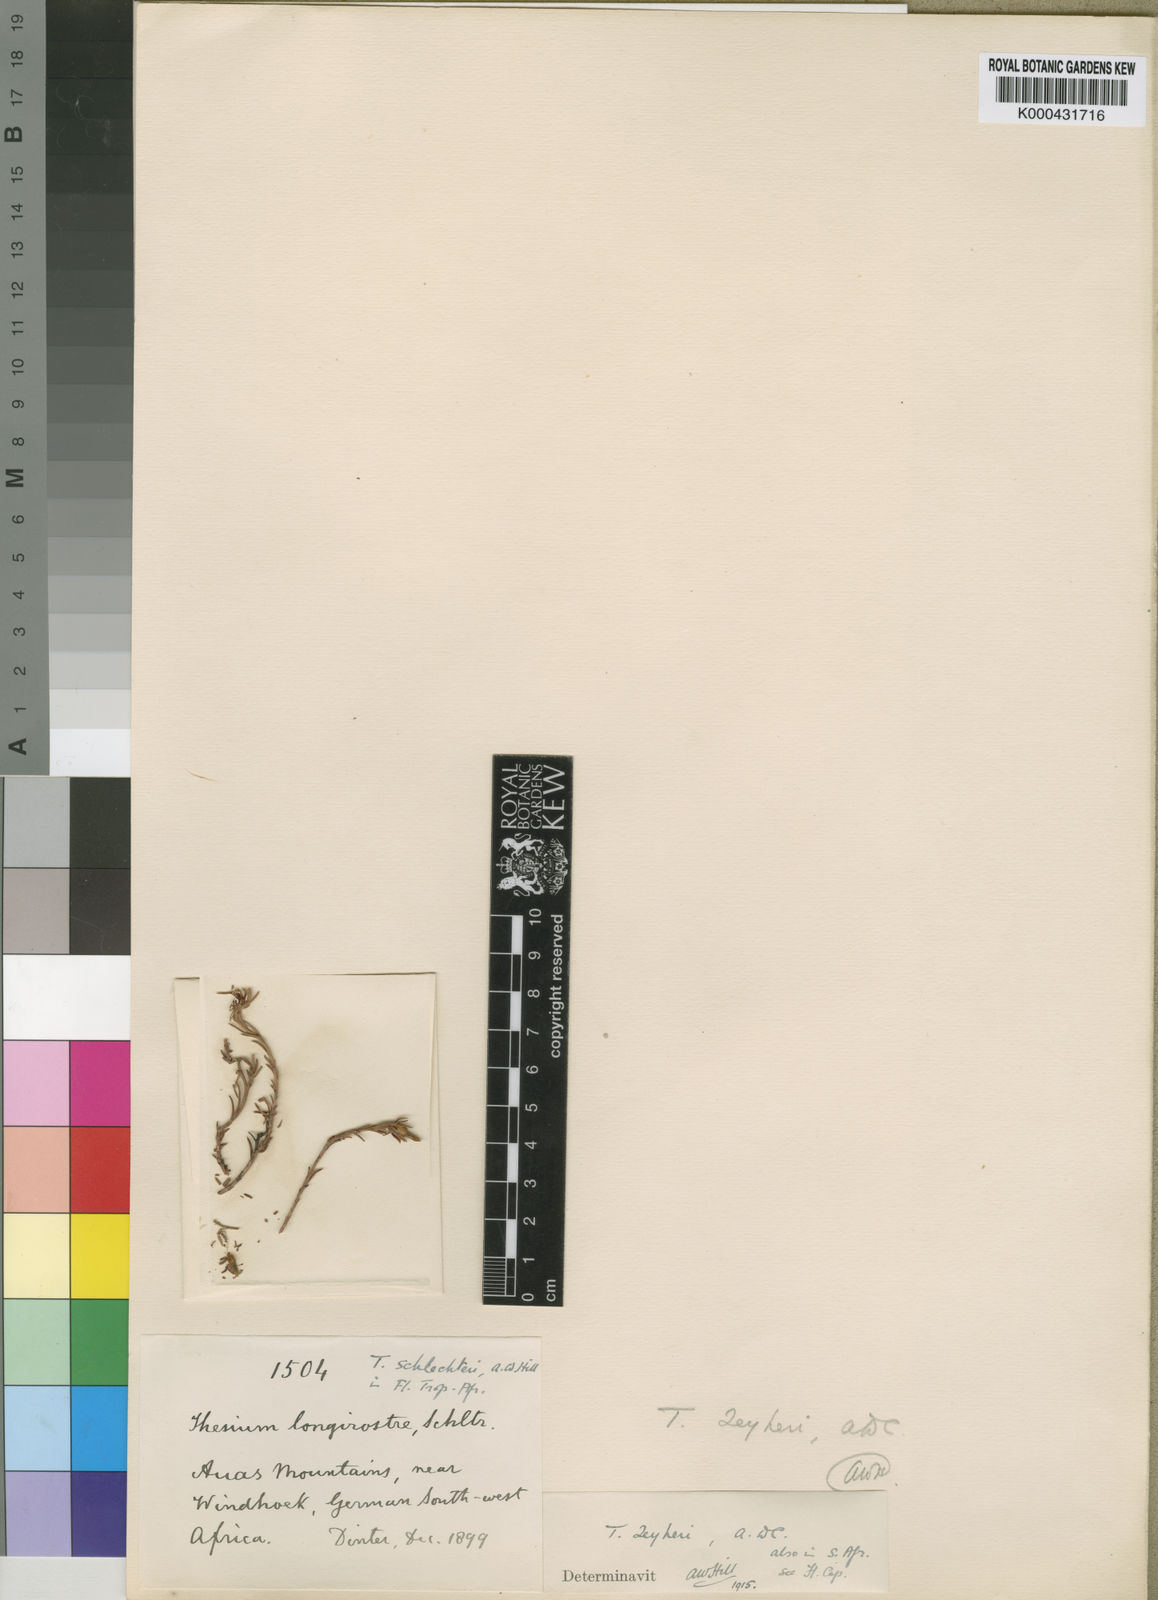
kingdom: Plantae
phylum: Tracheophyta
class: Magnoliopsida
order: Santalales
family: Thesiaceae
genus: Thesium
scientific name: Thesium zeyheri
